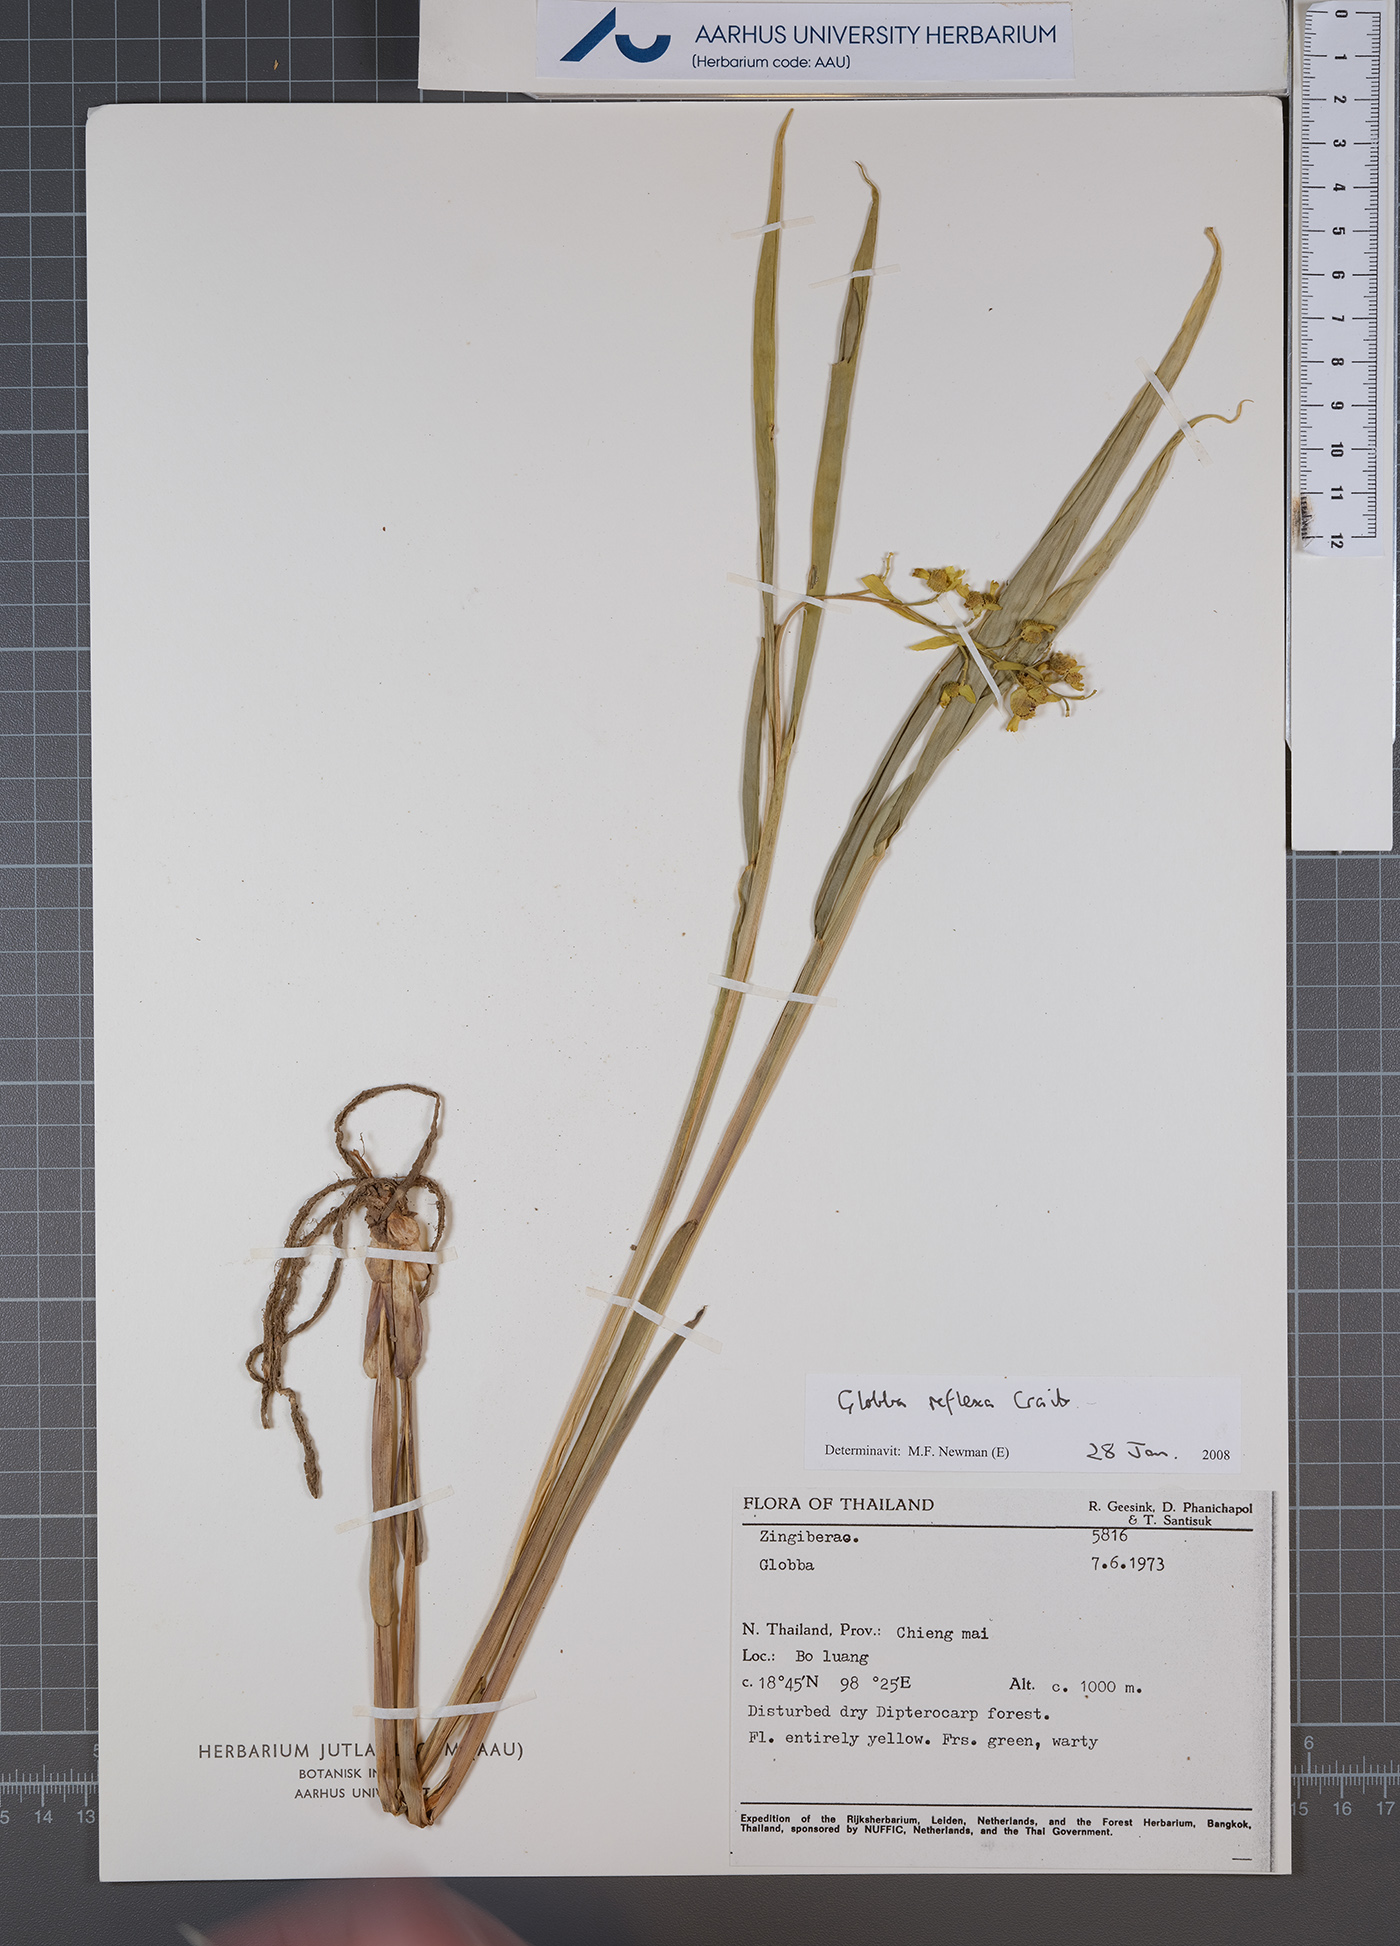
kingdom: Plantae
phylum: Tracheophyta
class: Liliopsida
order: Zingiberales
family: Zingiberaceae
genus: Globba
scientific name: Globba reflexa
